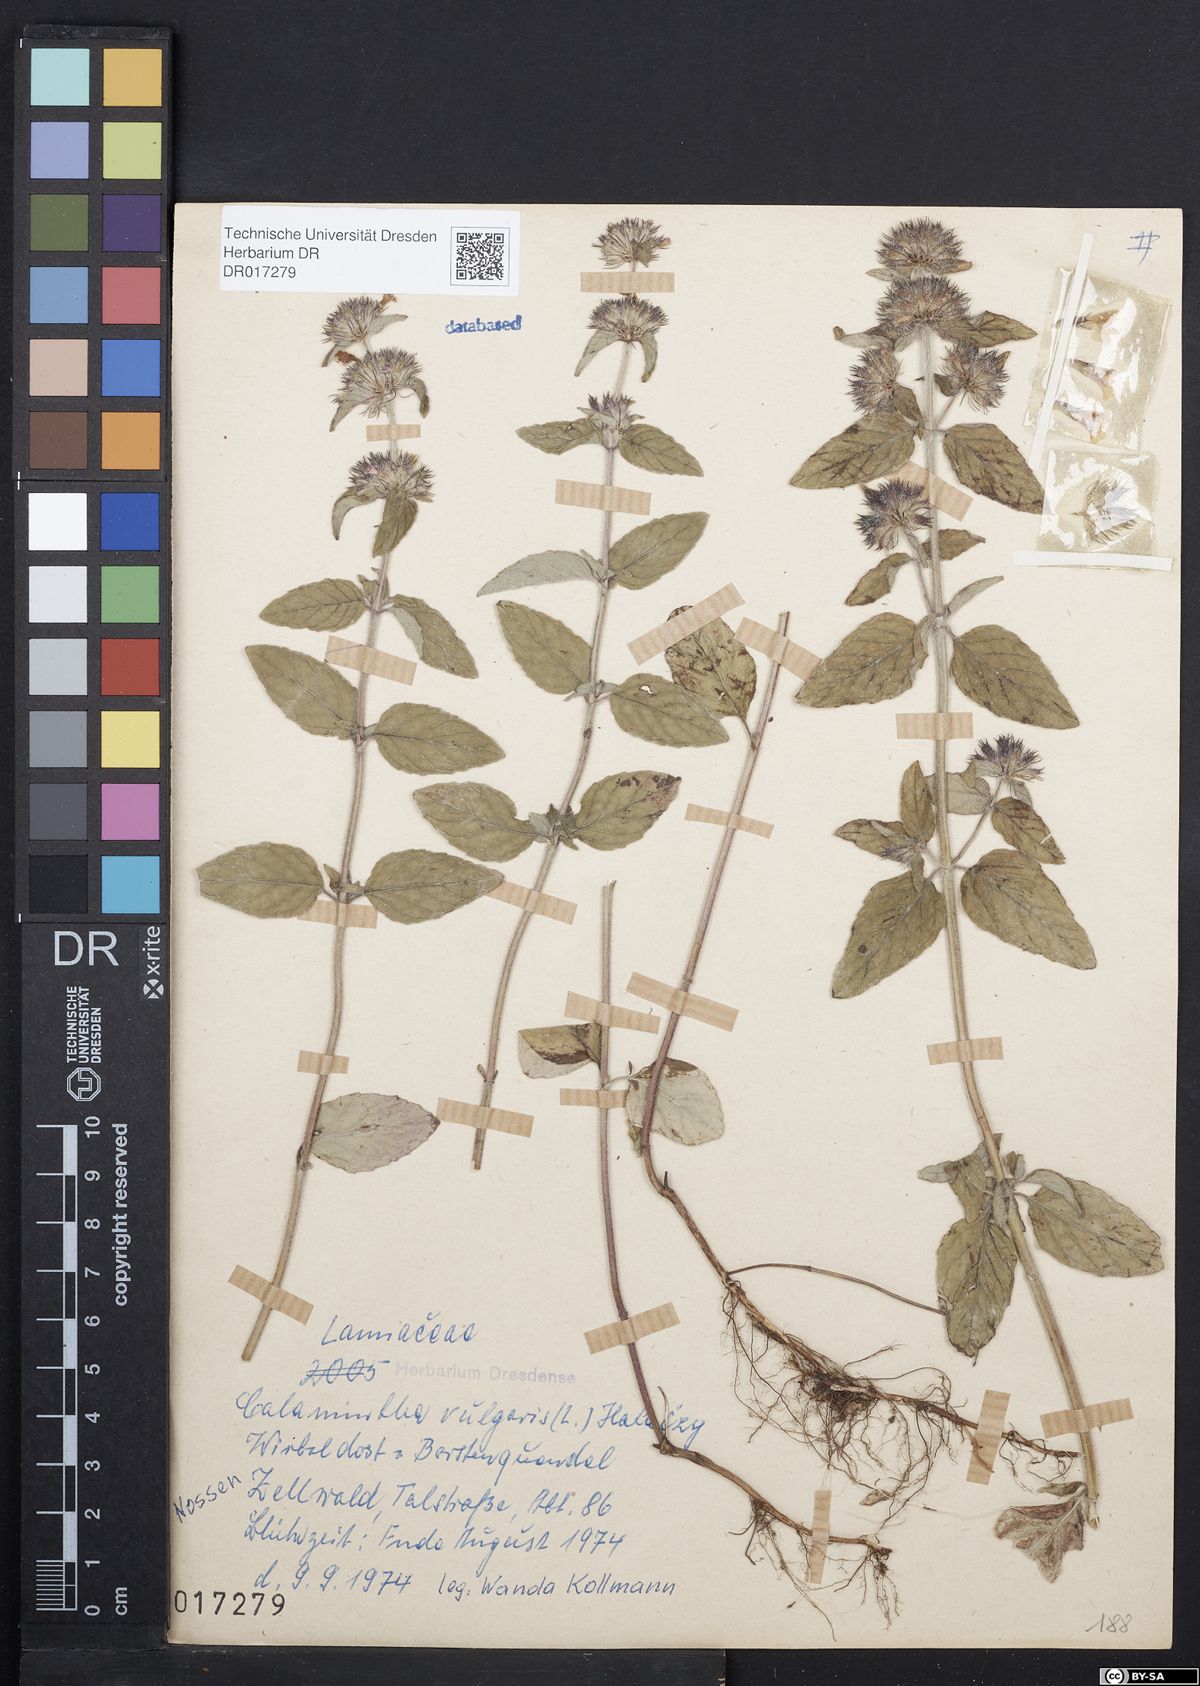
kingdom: Plantae
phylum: Tracheophyta
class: Magnoliopsida
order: Lamiales
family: Lamiaceae
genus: Clinopodium
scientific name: Clinopodium vulgare
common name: Wild basil
